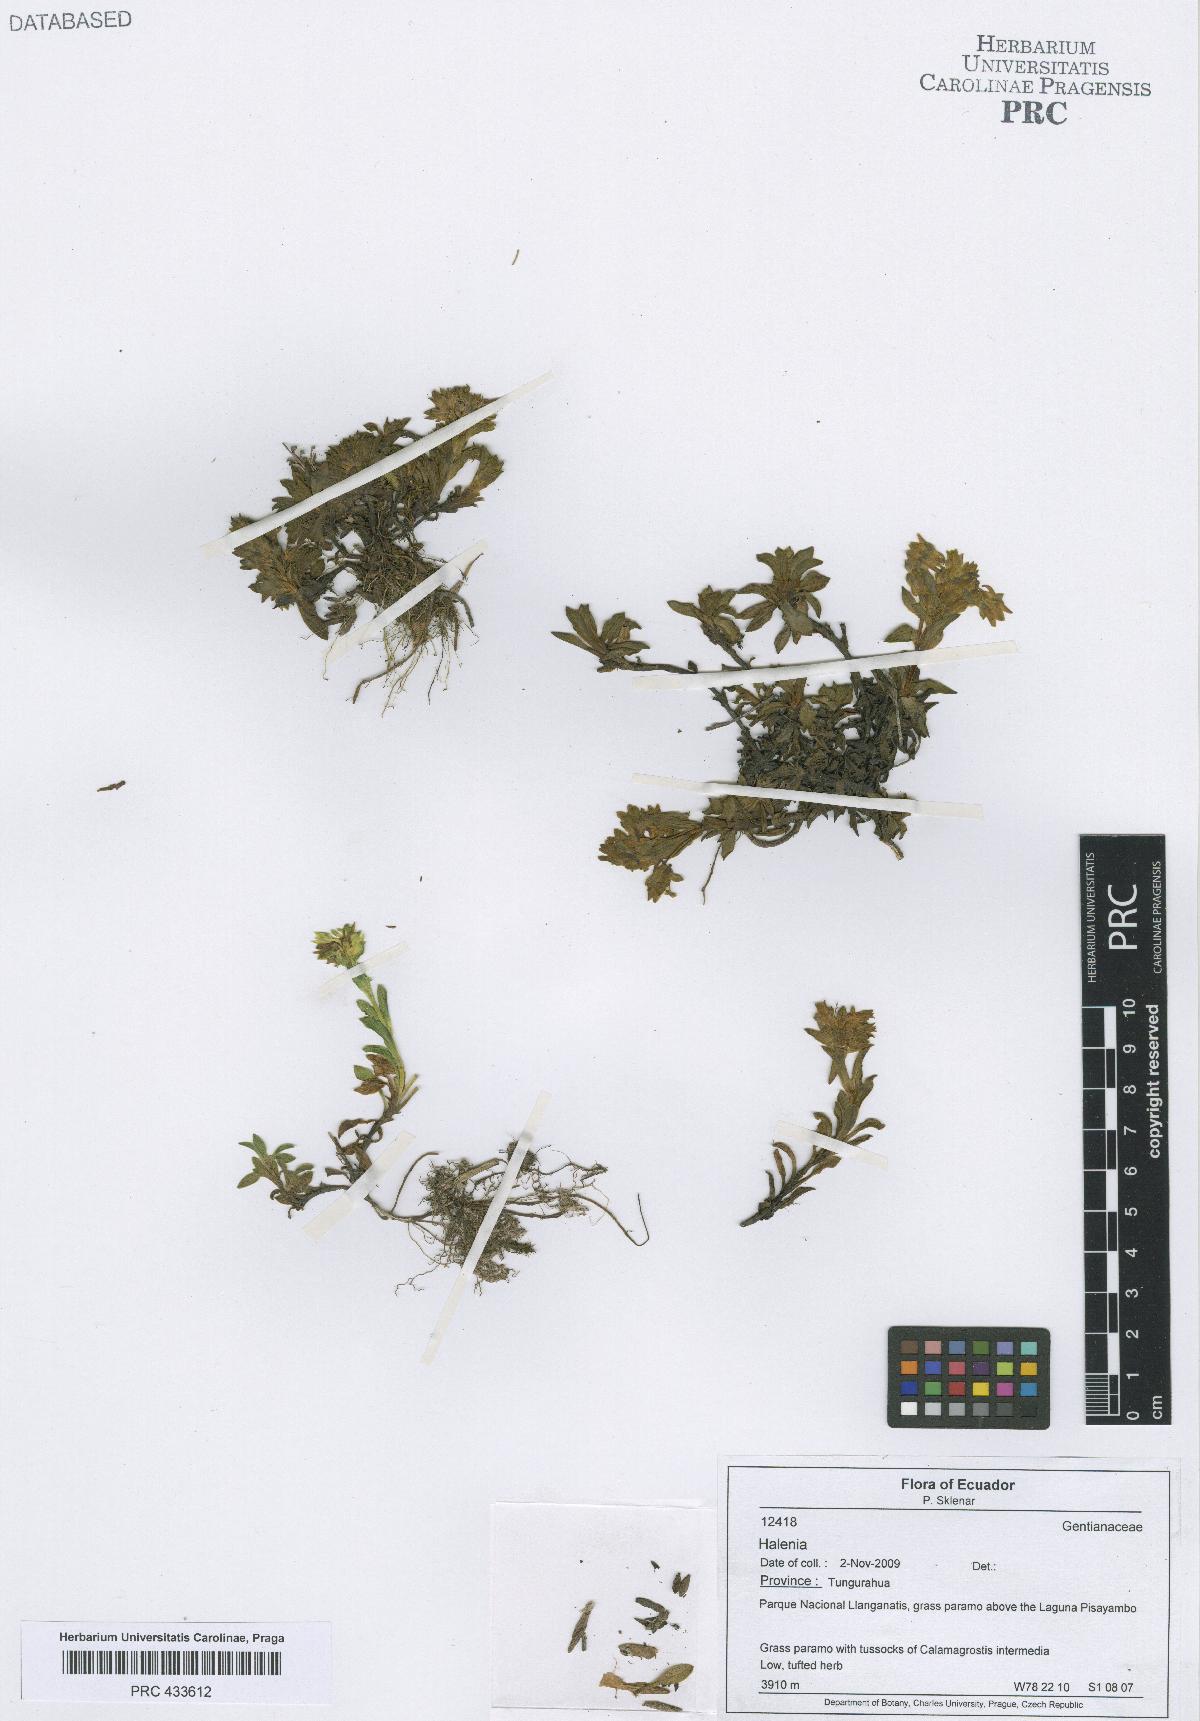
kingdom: Plantae
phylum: Tracheophyta
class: Magnoliopsida
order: Gentianales
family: Gentianaceae
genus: Halenia
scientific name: Halenia
